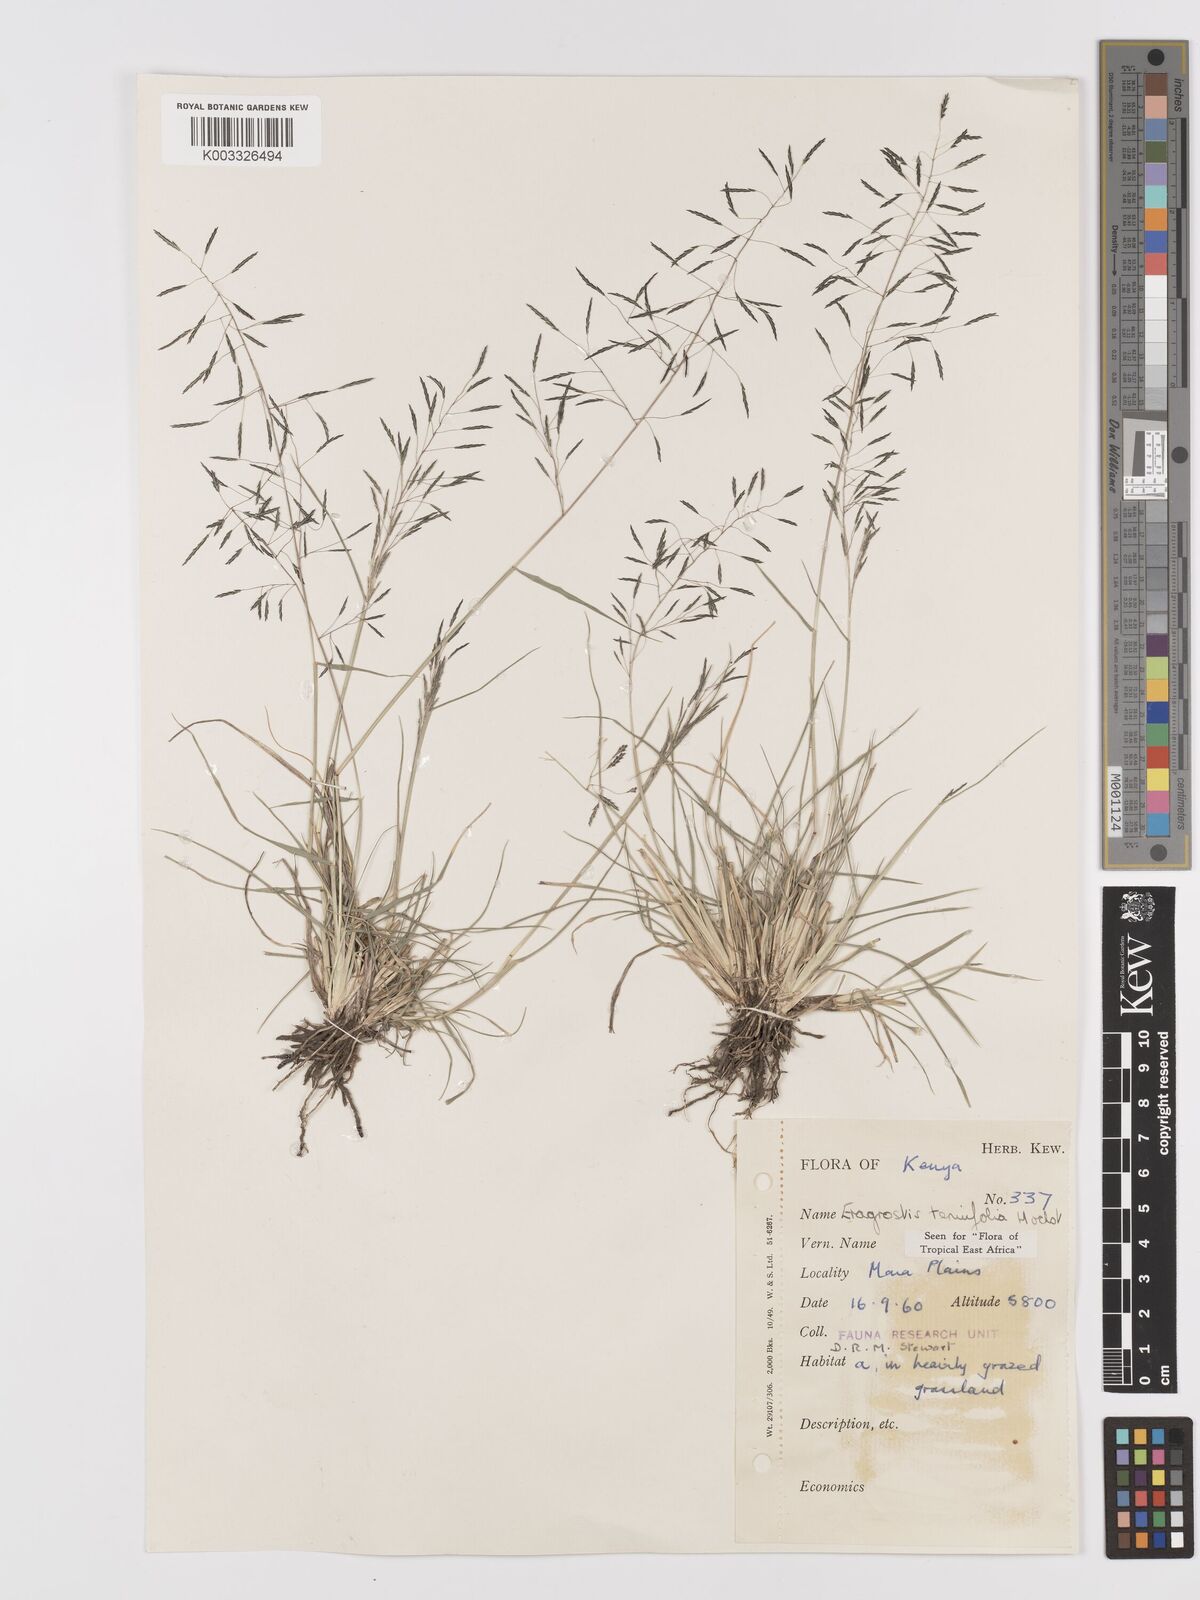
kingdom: Plantae
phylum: Tracheophyta
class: Liliopsida
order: Poales
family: Poaceae
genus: Eragrostis
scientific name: Eragrostis tenuifolia
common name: Elastic grass
